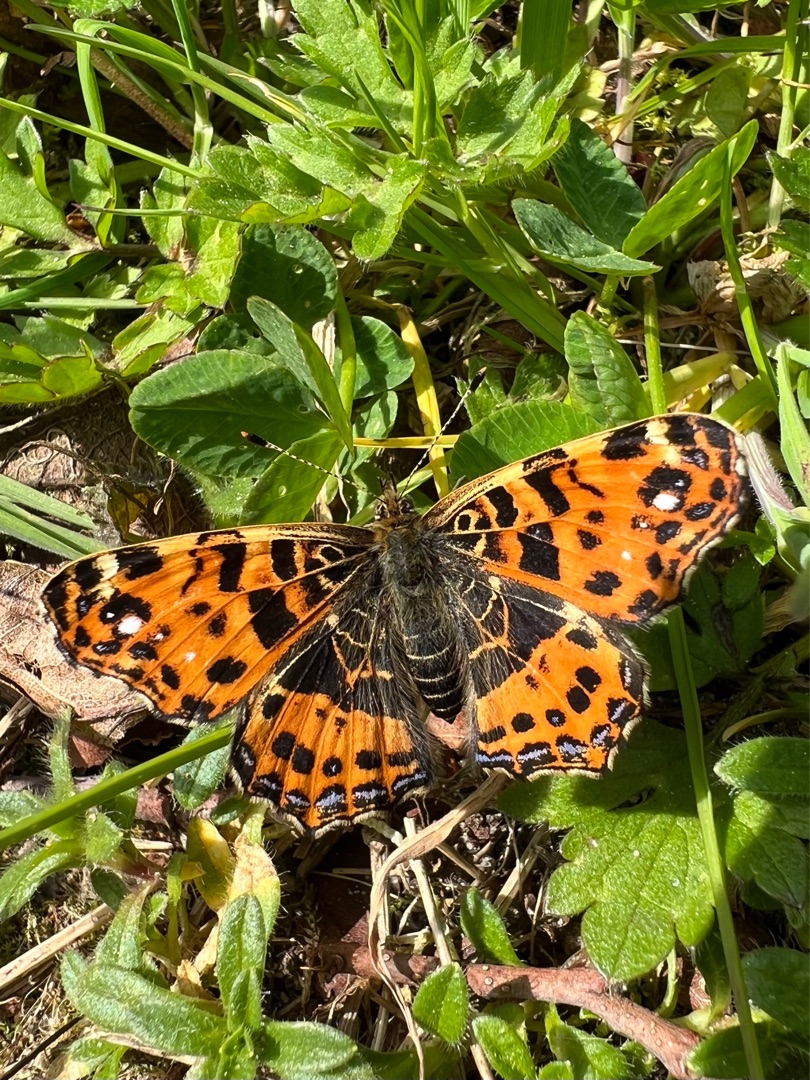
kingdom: Animalia
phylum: Arthropoda
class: Insecta
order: Lepidoptera
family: Nymphalidae
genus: Araschnia
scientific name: Araschnia levana
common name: Nældesommerfugl
